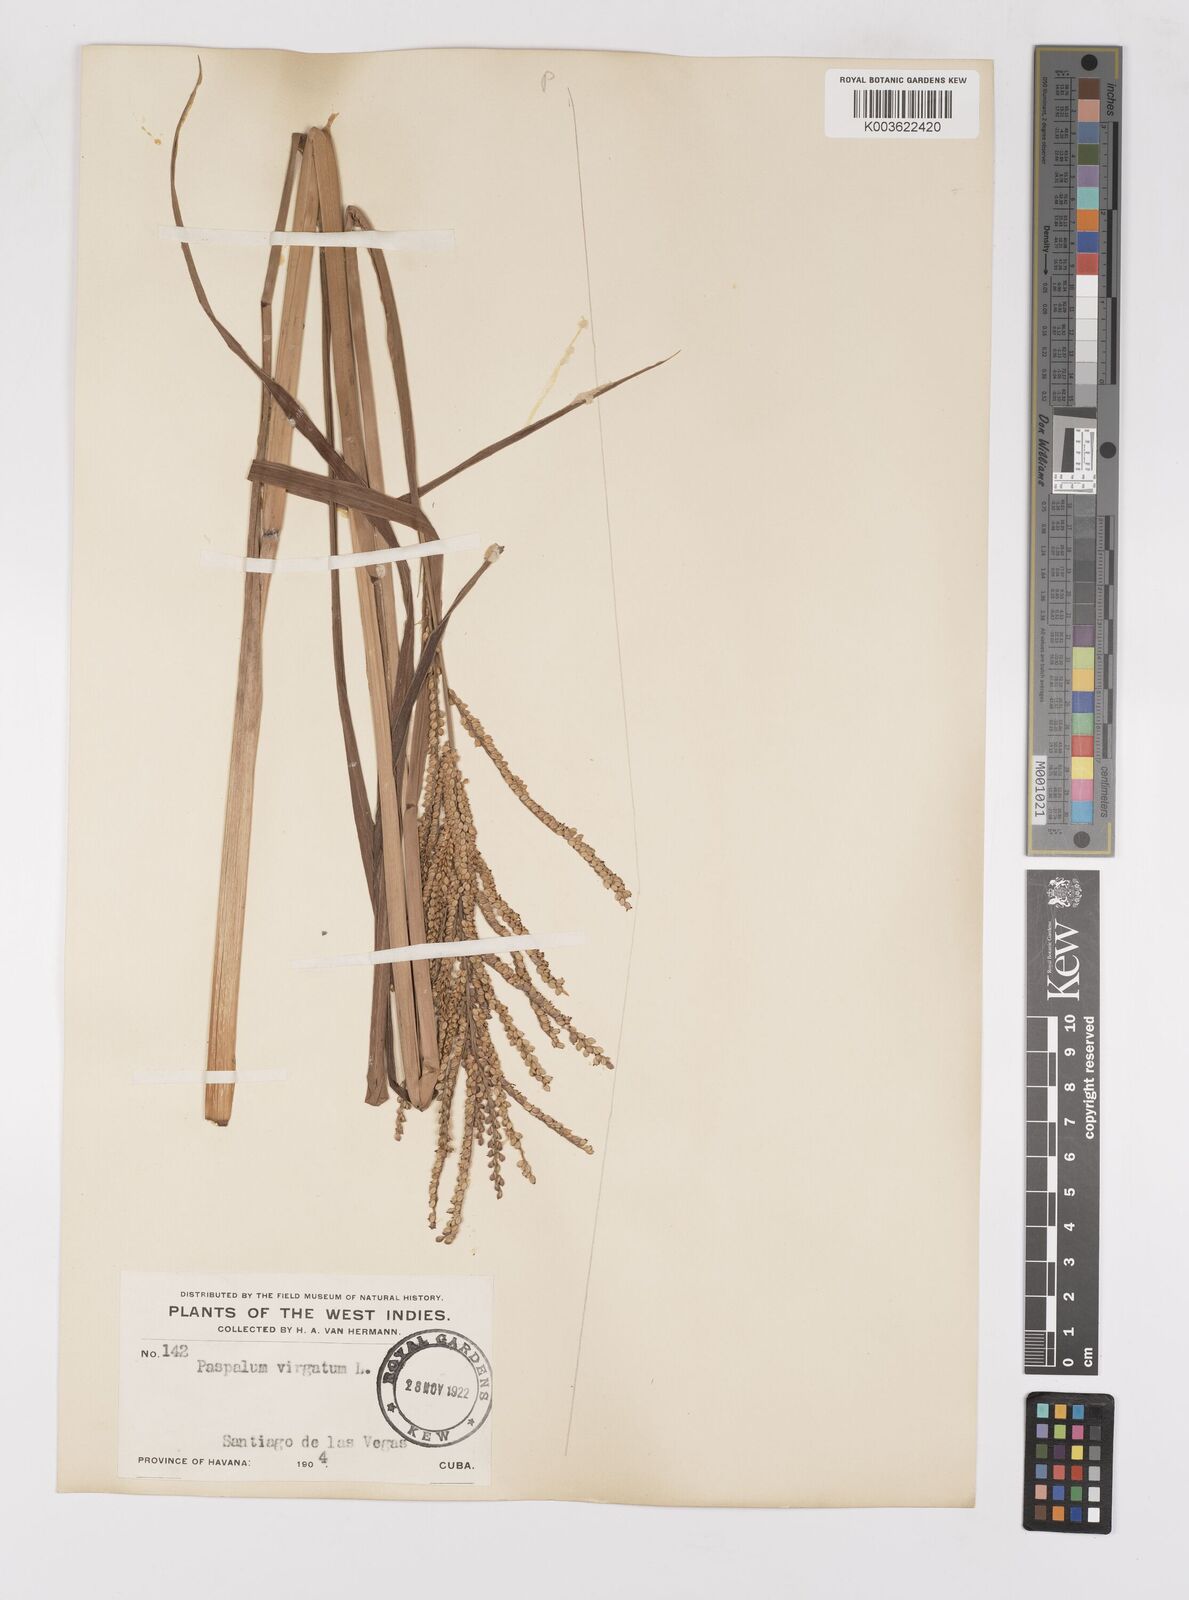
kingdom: Plantae
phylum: Tracheophyta
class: Liliopsida
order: Poales
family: Poaceae
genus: Paspalum
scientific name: Paspalum virgatum
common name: Talquezal
